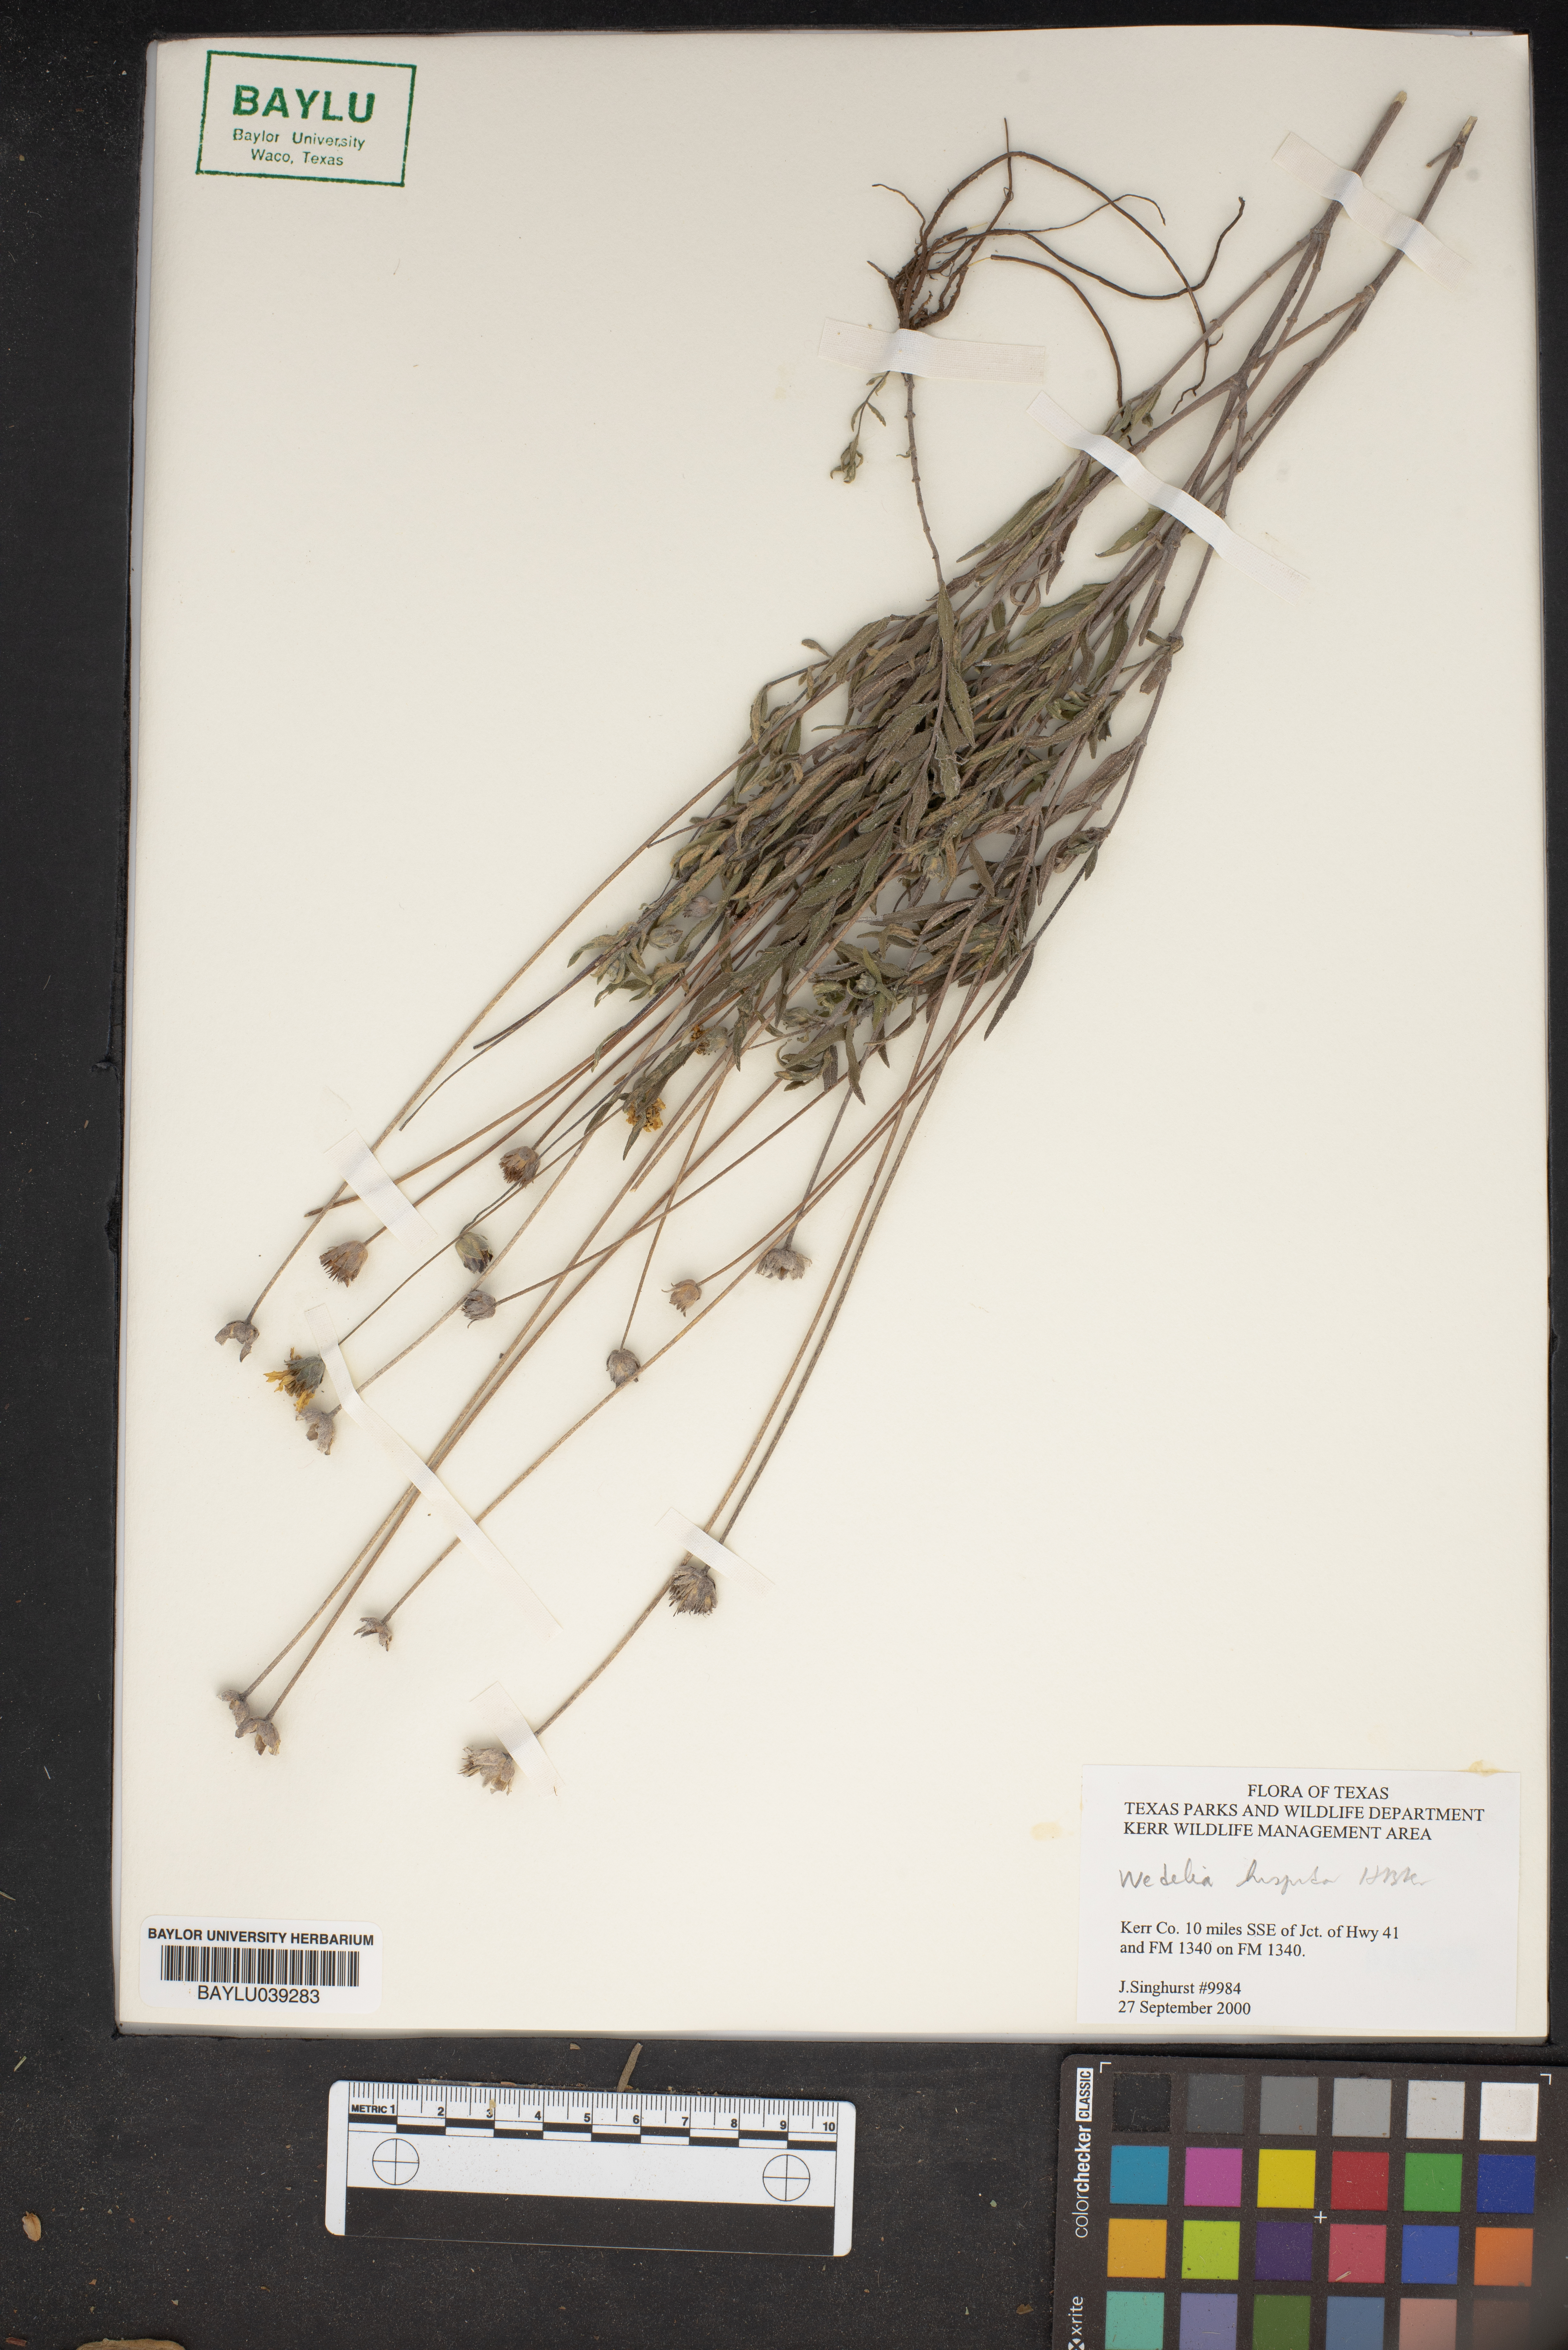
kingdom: Plantae
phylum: Tracheophyta
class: Magnoliopsida
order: Asterales
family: Asteraceae
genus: Wedelia
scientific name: Wedelia acapulcensis
